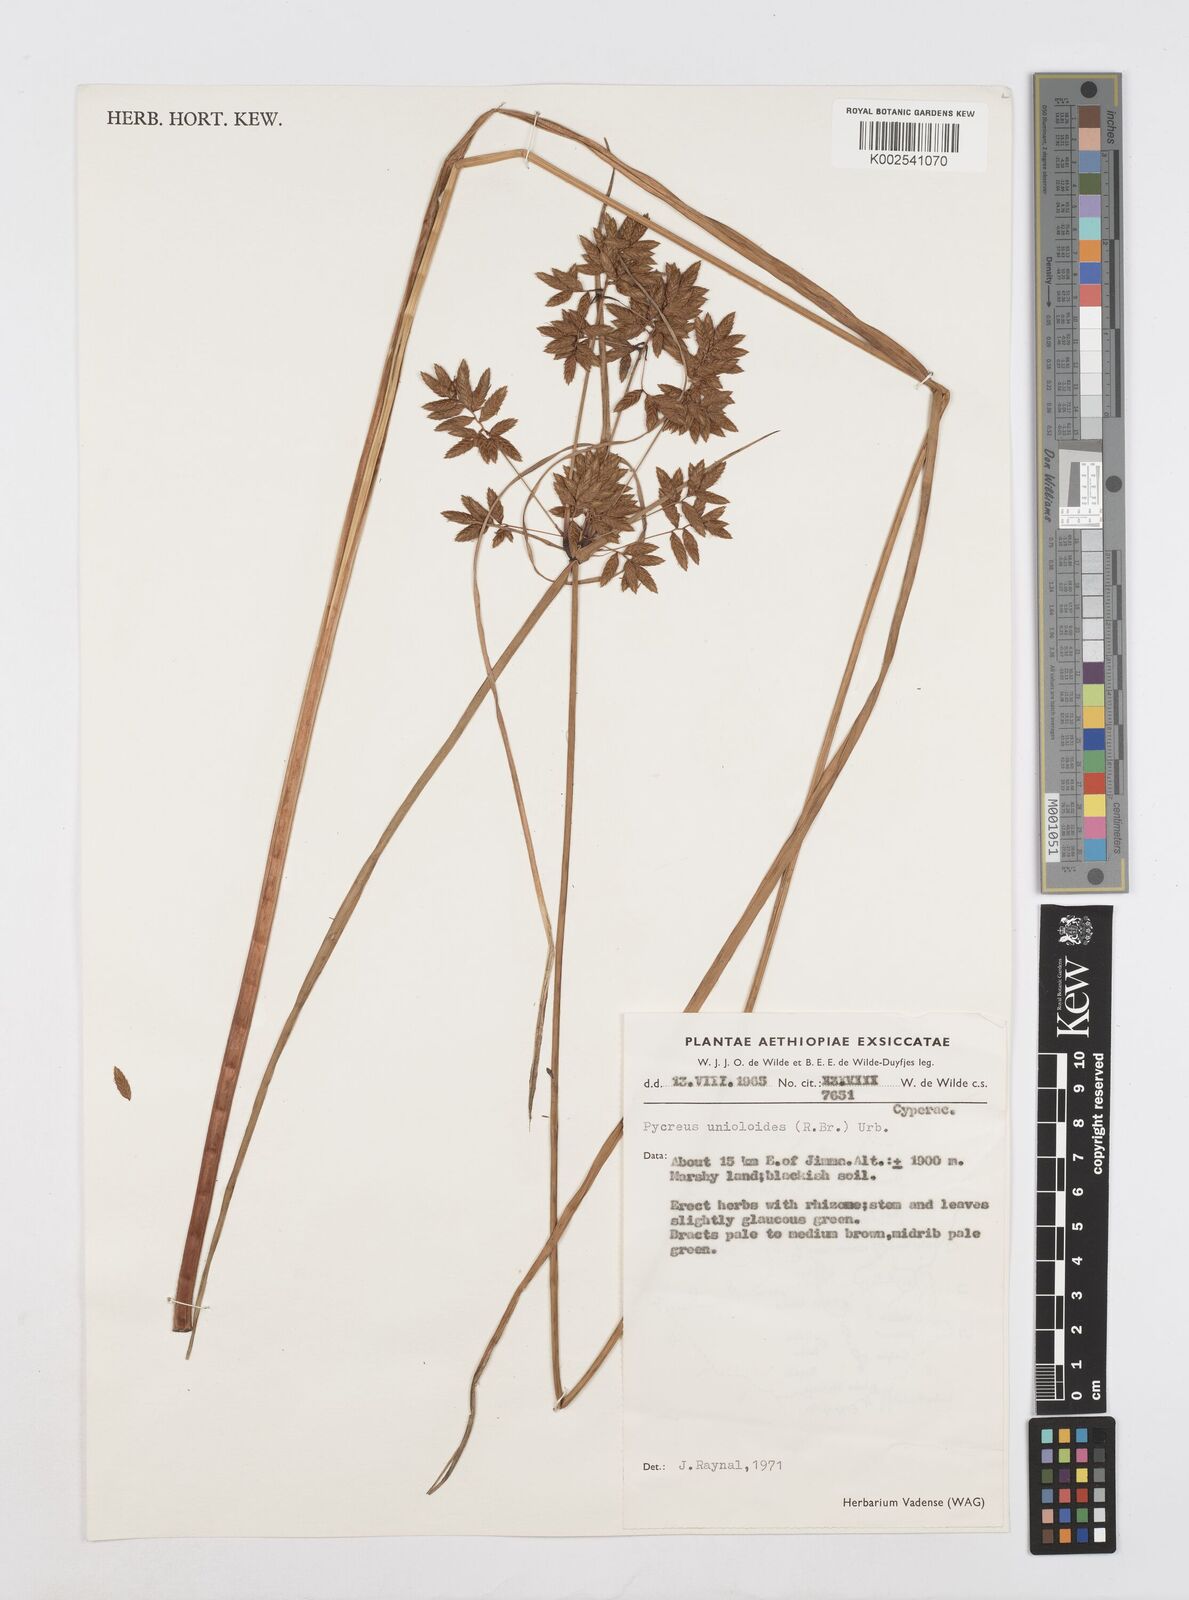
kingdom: Plantae
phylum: Tracheophyta
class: Liliopsida
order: Poales
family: Cyperaceae
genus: Cyperus
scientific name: Cyperus unioloides
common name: Uniola flatsedge
